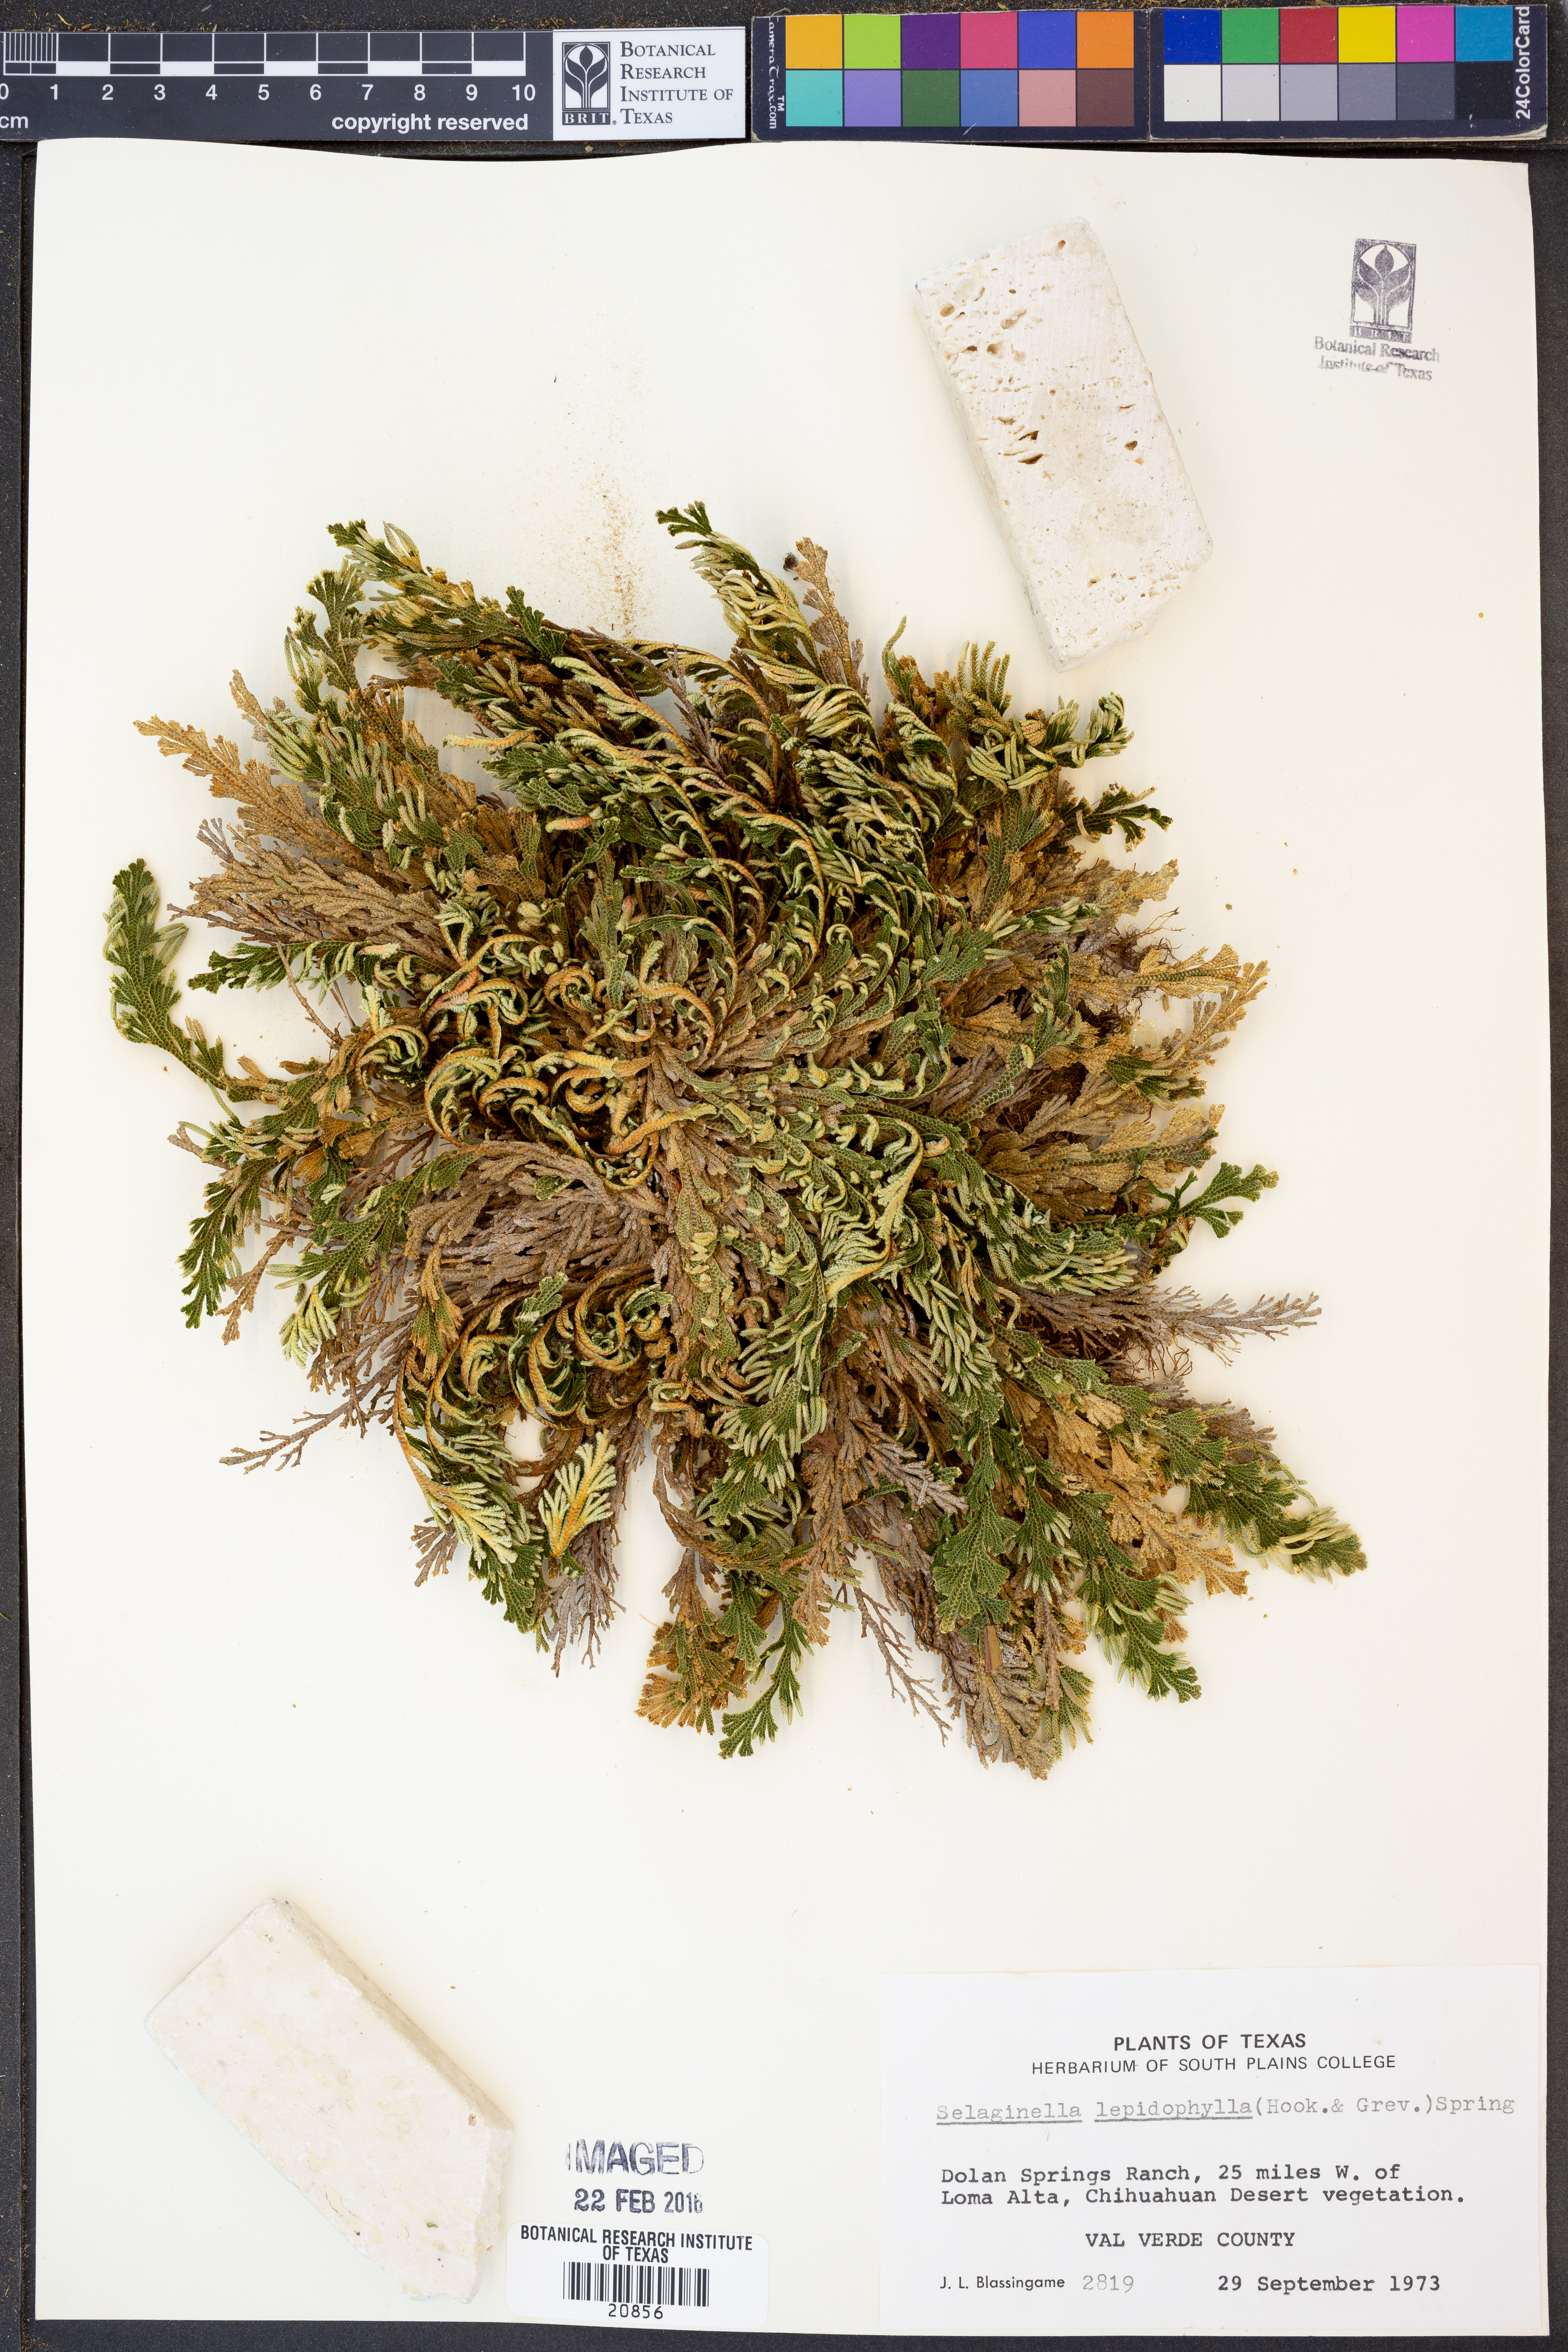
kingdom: Plantae
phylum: Tracheophyta
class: Lycopodiopsida
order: Selaginellales
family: Selaginellaceae
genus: Selaginella
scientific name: Selaginella lepidophylla
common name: Rose-of-jericho
